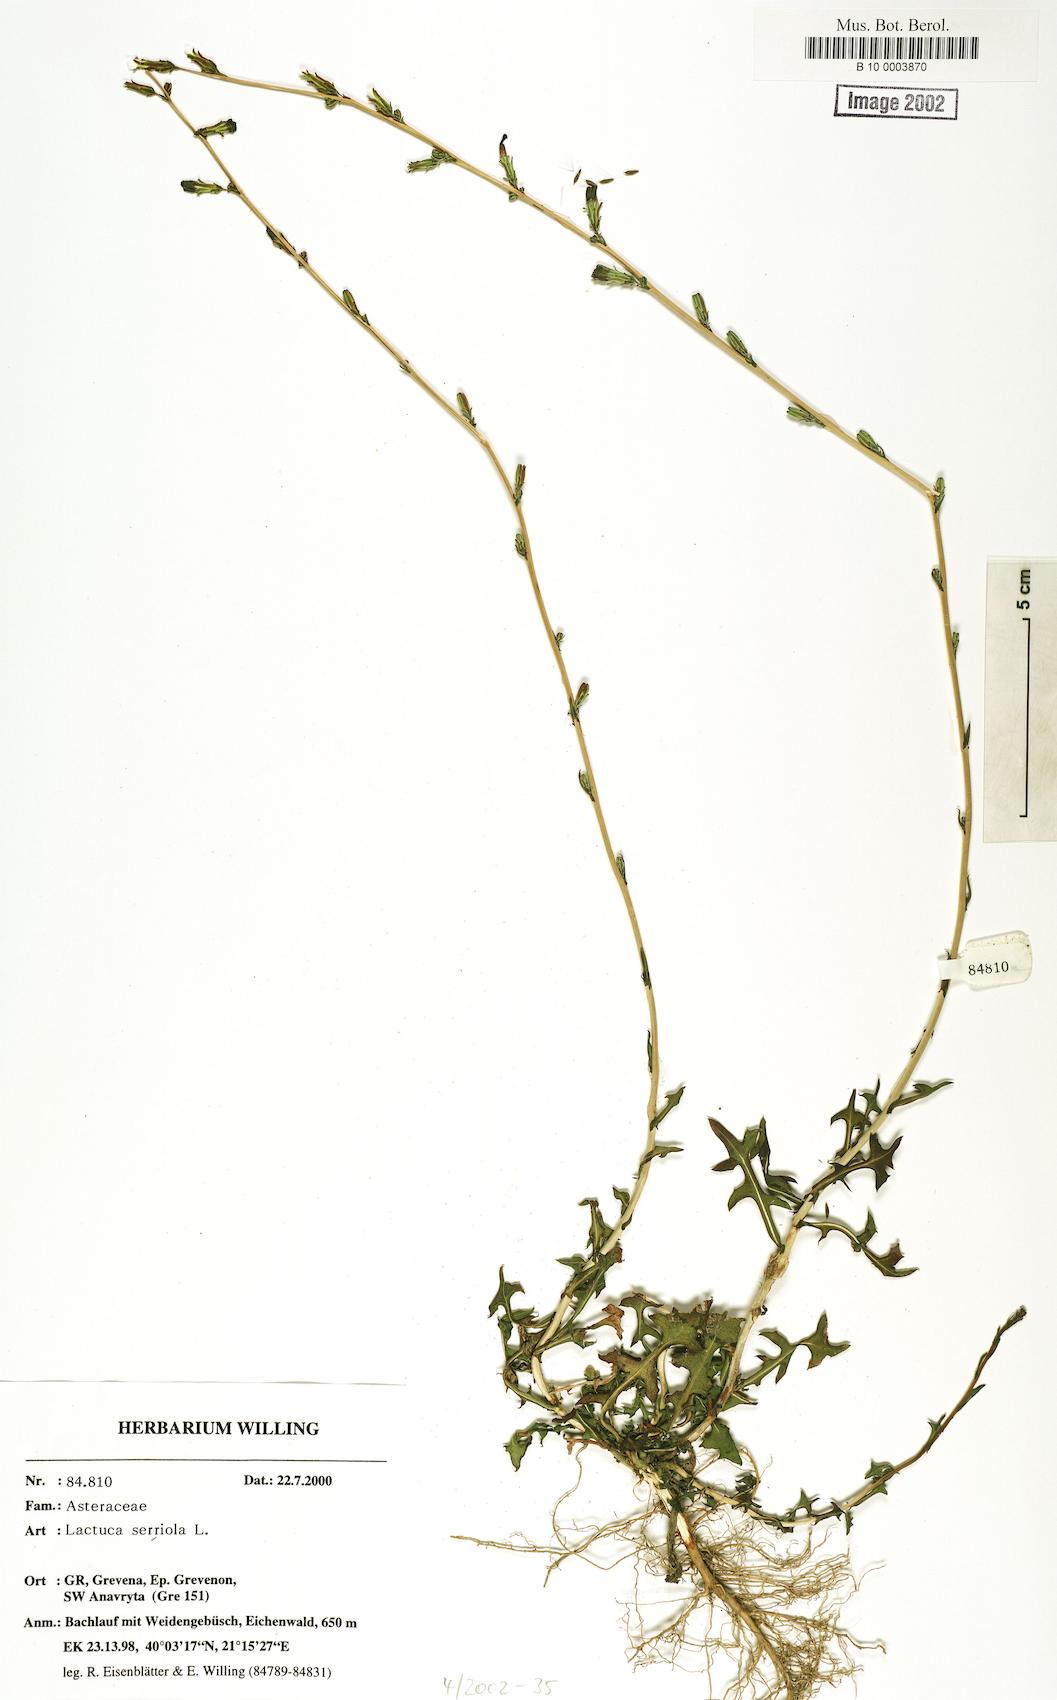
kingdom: Plantae
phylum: Tracheophyta
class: Magnoliopsida
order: Asterales
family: Asteraceae
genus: Lactuca
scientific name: Lactuca serriola
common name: Prickly lettuce
